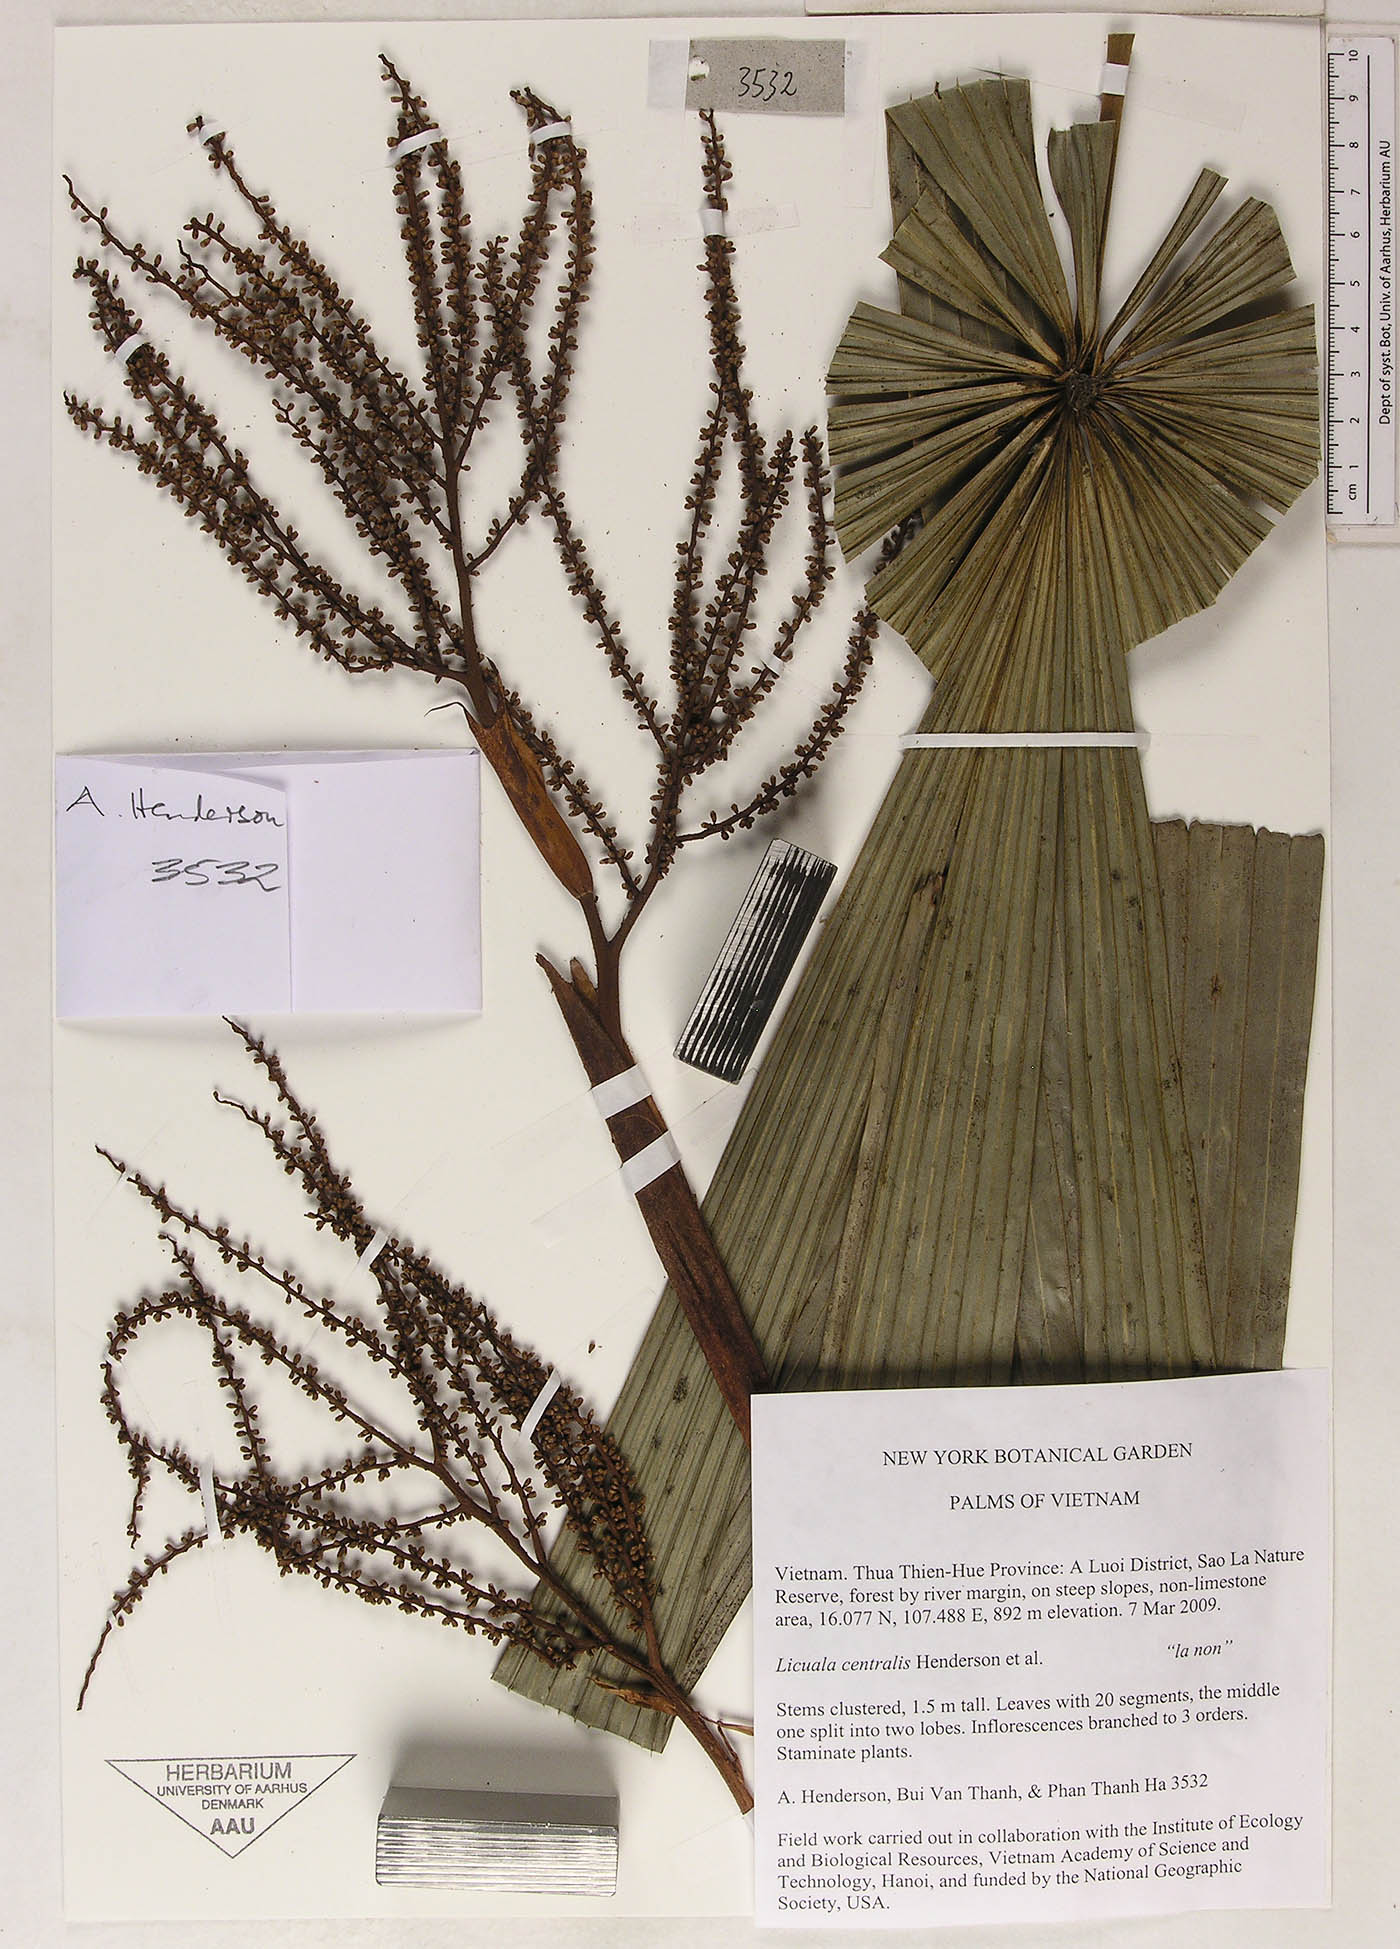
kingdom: Plantae
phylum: Tracheophyta
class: Liliopsida
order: Arecales
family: Arecaceae
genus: Lanonia
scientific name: Lanonia centralis
